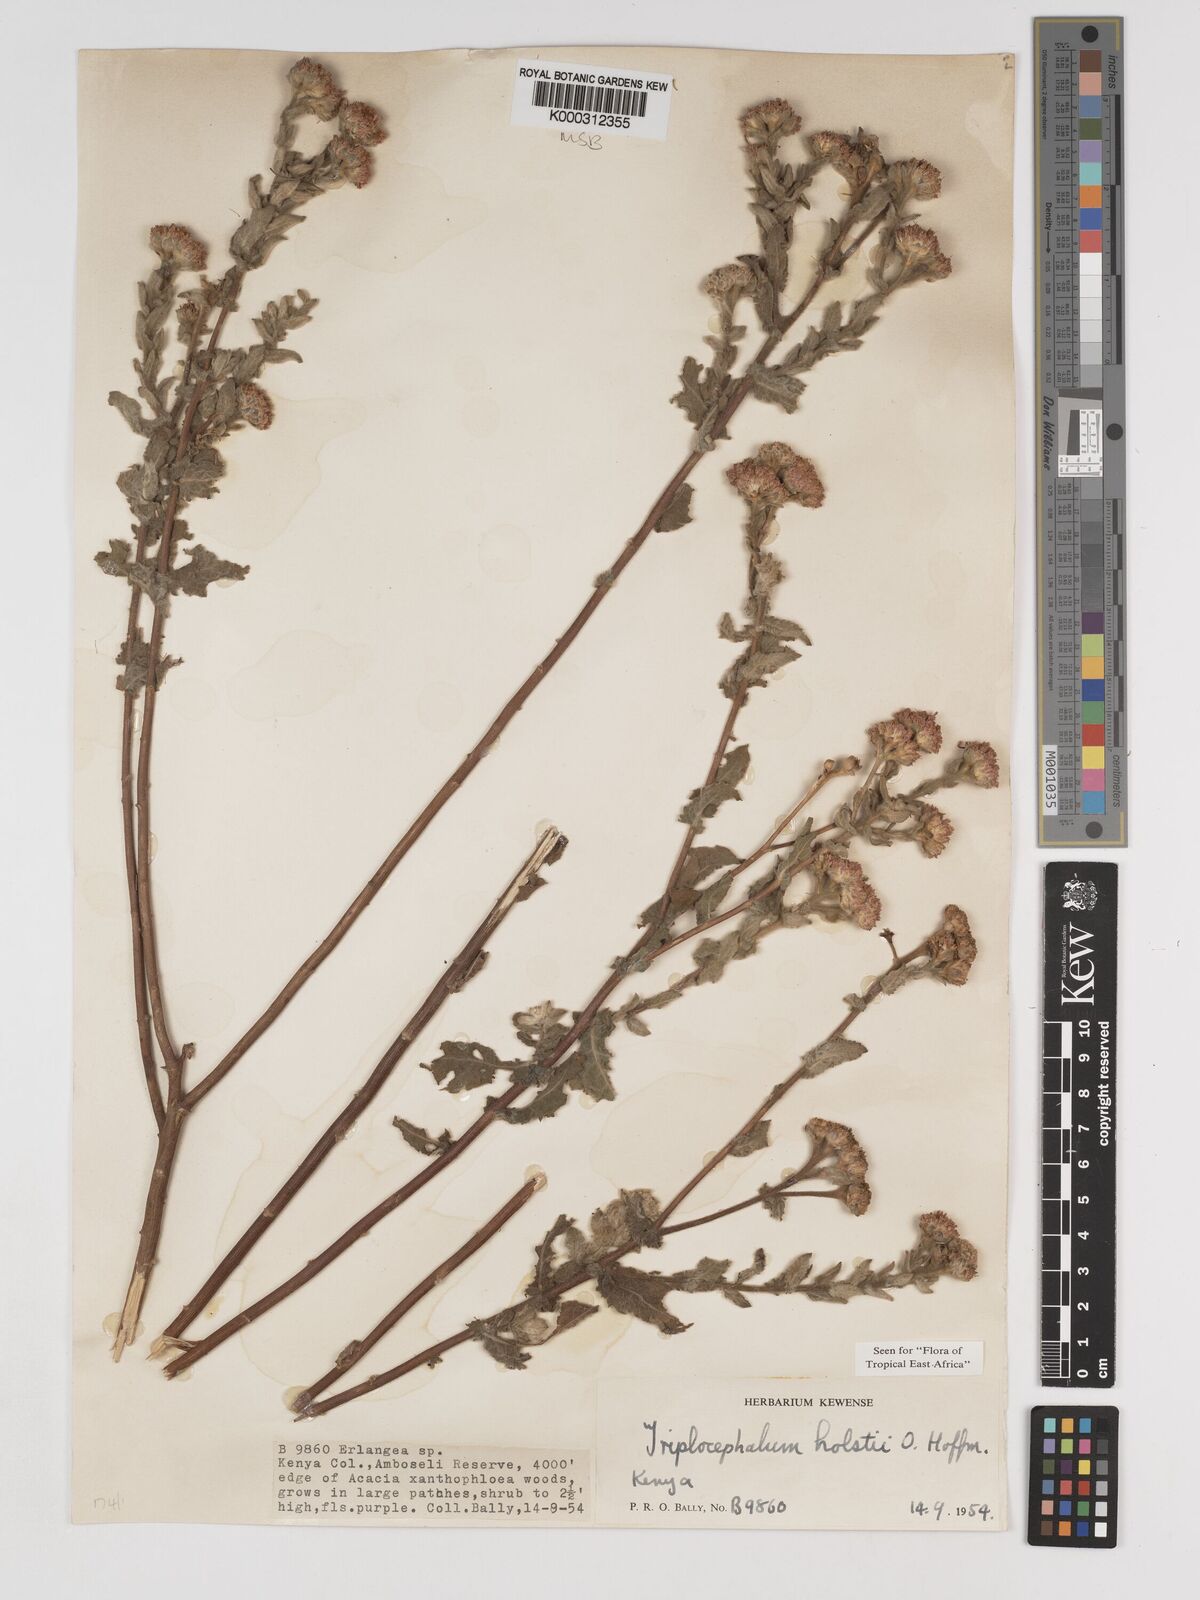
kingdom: Plantae
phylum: Tracheophyta
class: Magnoliopsida
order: Asterales
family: Asteraceae
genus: Triplocephalum
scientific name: Triplocephalum holstii
